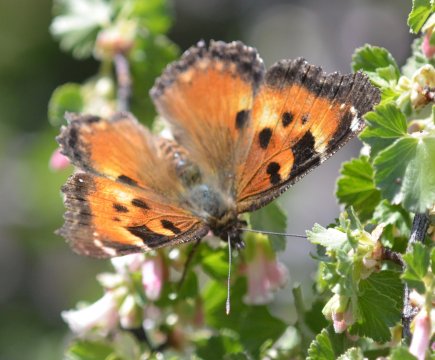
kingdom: Animalia
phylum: Arthropoda
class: Insecta
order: Lepidoptera
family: Nymphalidae
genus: Nymphalis
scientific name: Nymphalis californica
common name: California Tortoiseshell
